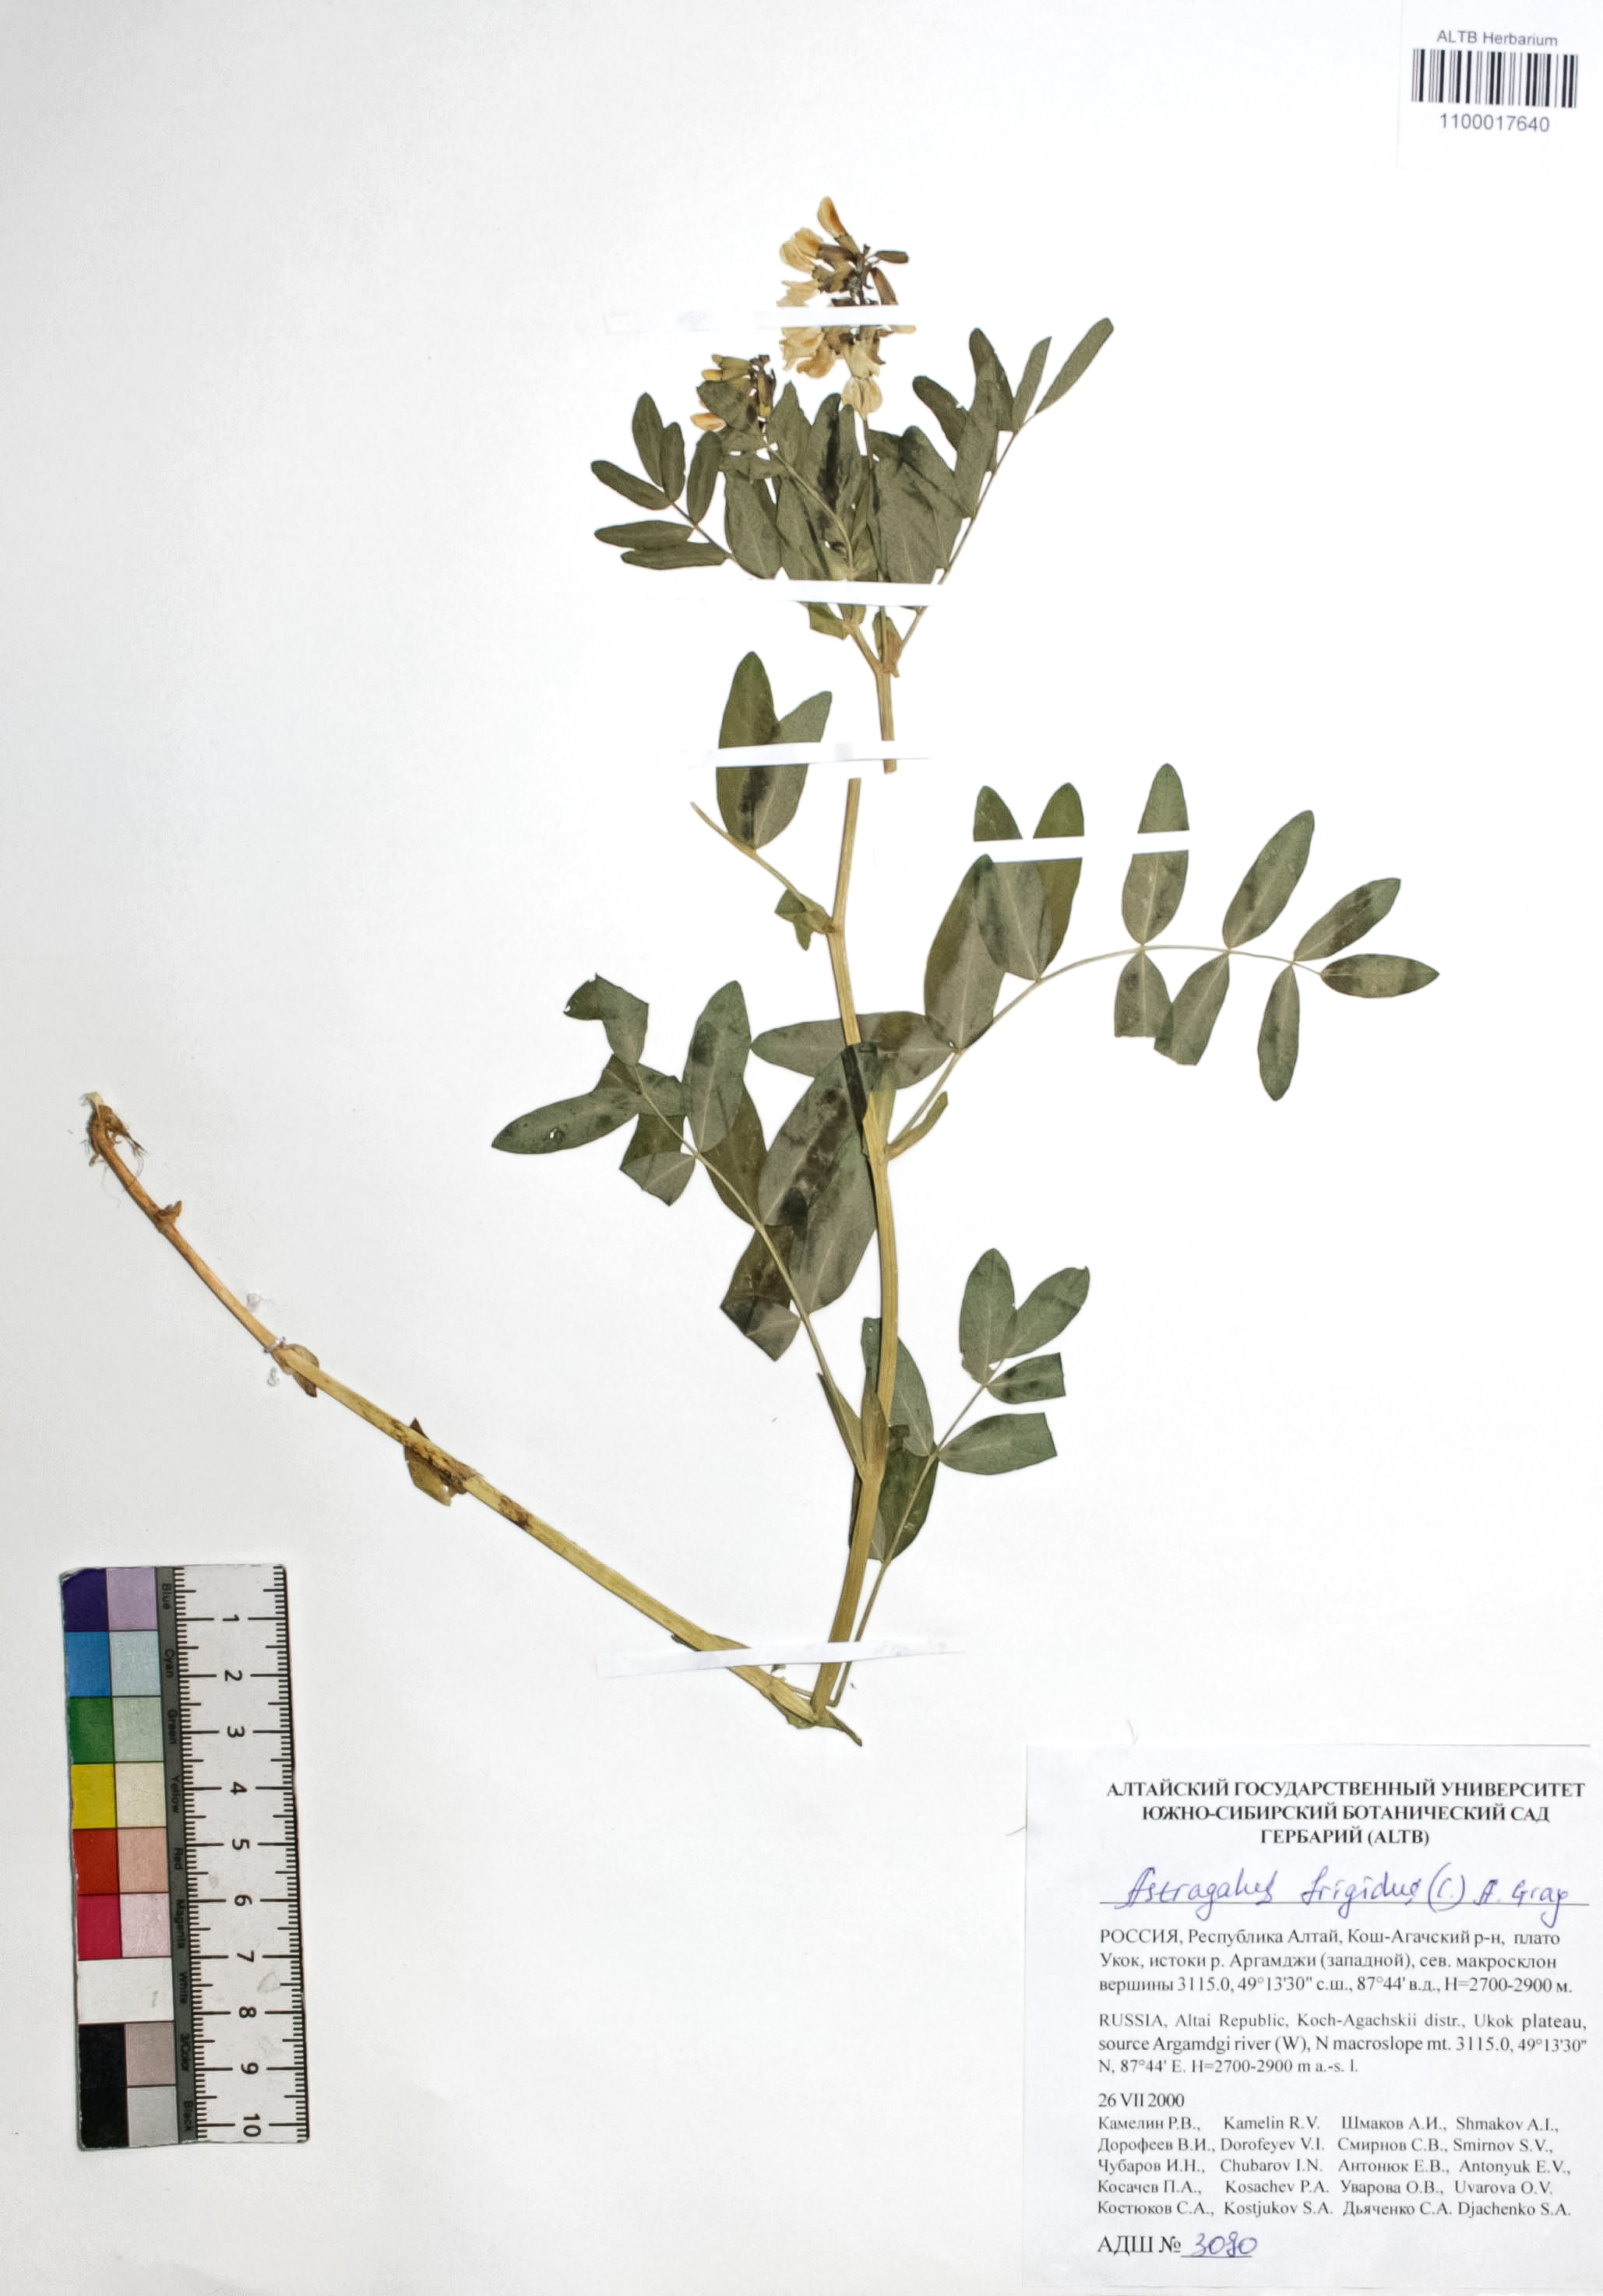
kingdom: Plantae
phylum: Tracheophyta
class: Magnoliopsida
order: Fabales
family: Fabaceae
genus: Astragalus
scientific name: Astragalus frigidus
